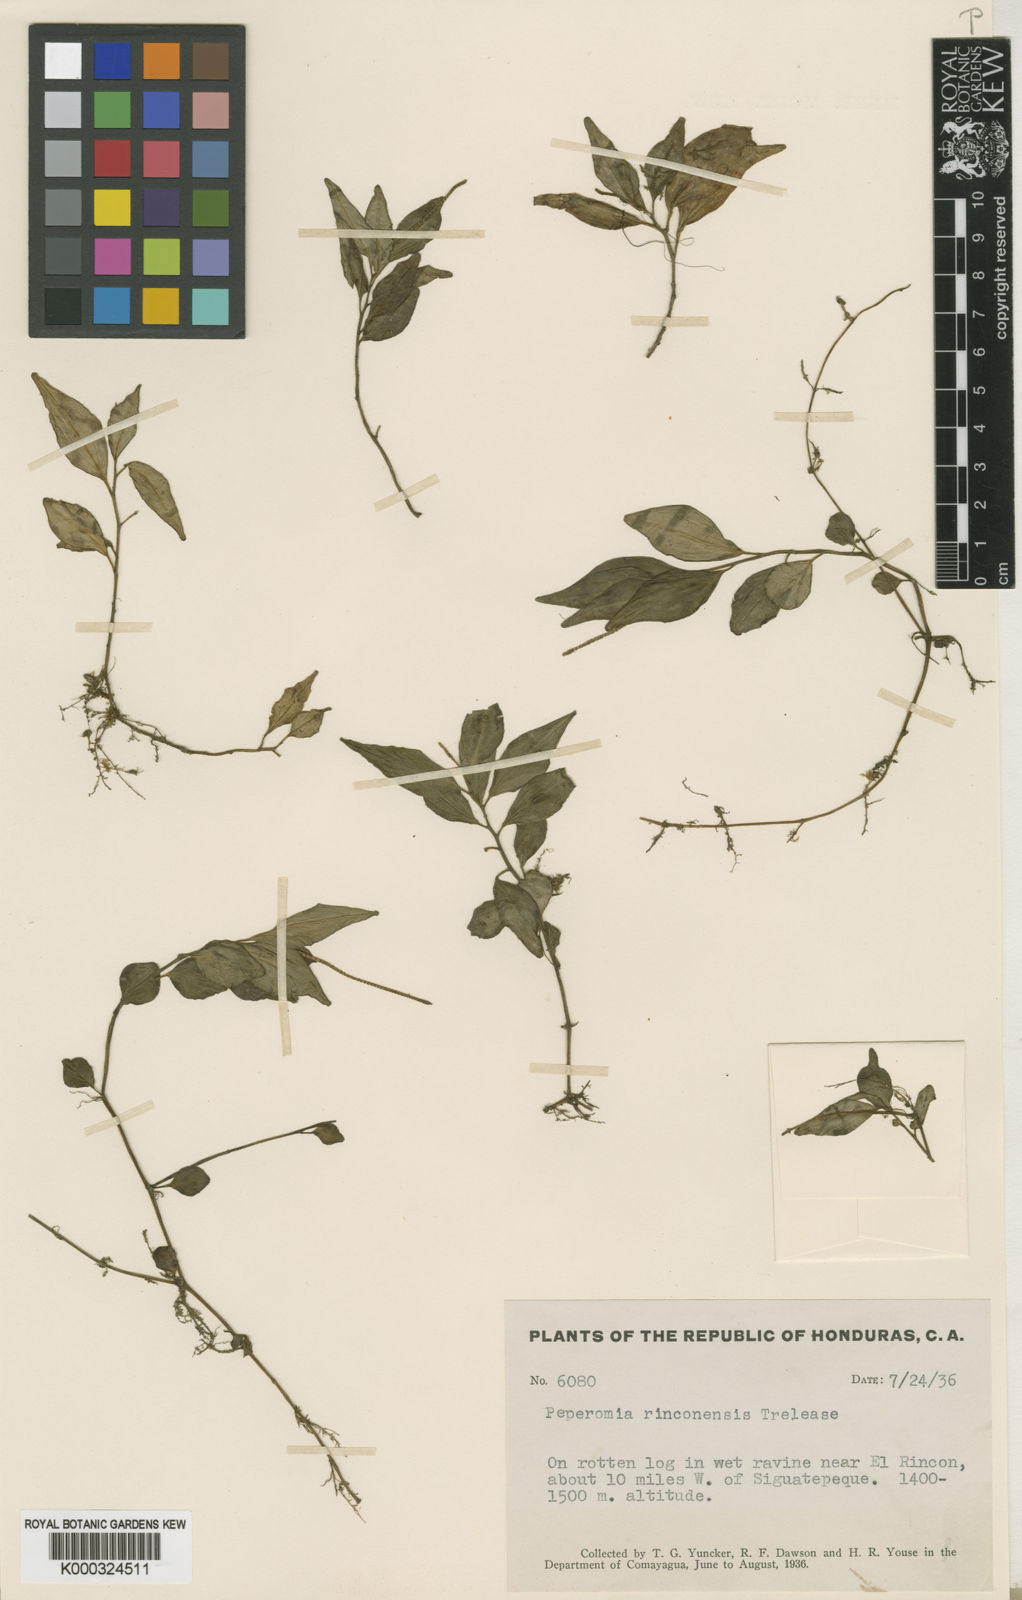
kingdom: Plantae
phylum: Tracheophyta
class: Magnoliopsida
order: Piperales
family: Piperaceae
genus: Peperomia
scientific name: Peperomia heterophylla
